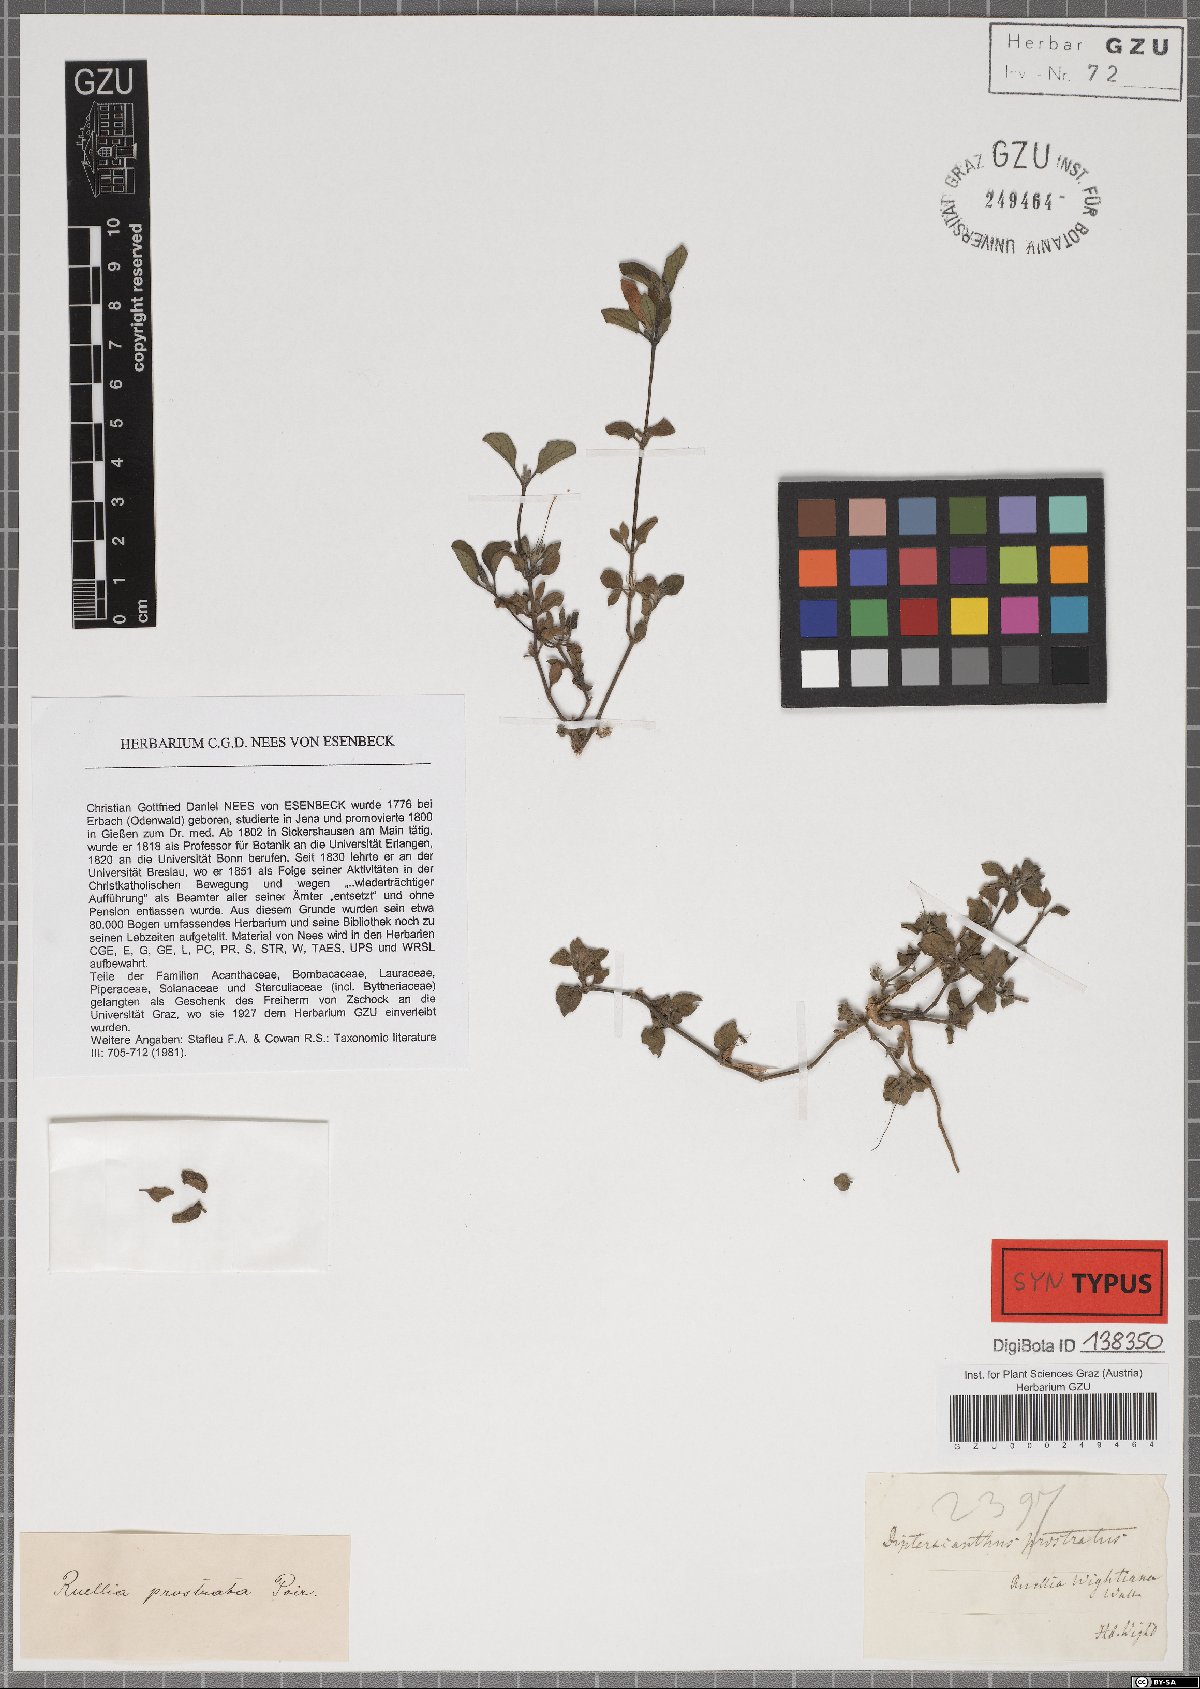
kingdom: Plantae
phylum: Tracheophyta
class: Magnoliopsida
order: Lamiales
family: Acanthaceae
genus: Ruellia
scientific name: Ruellia prostrata
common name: Prostrate wild petunia
